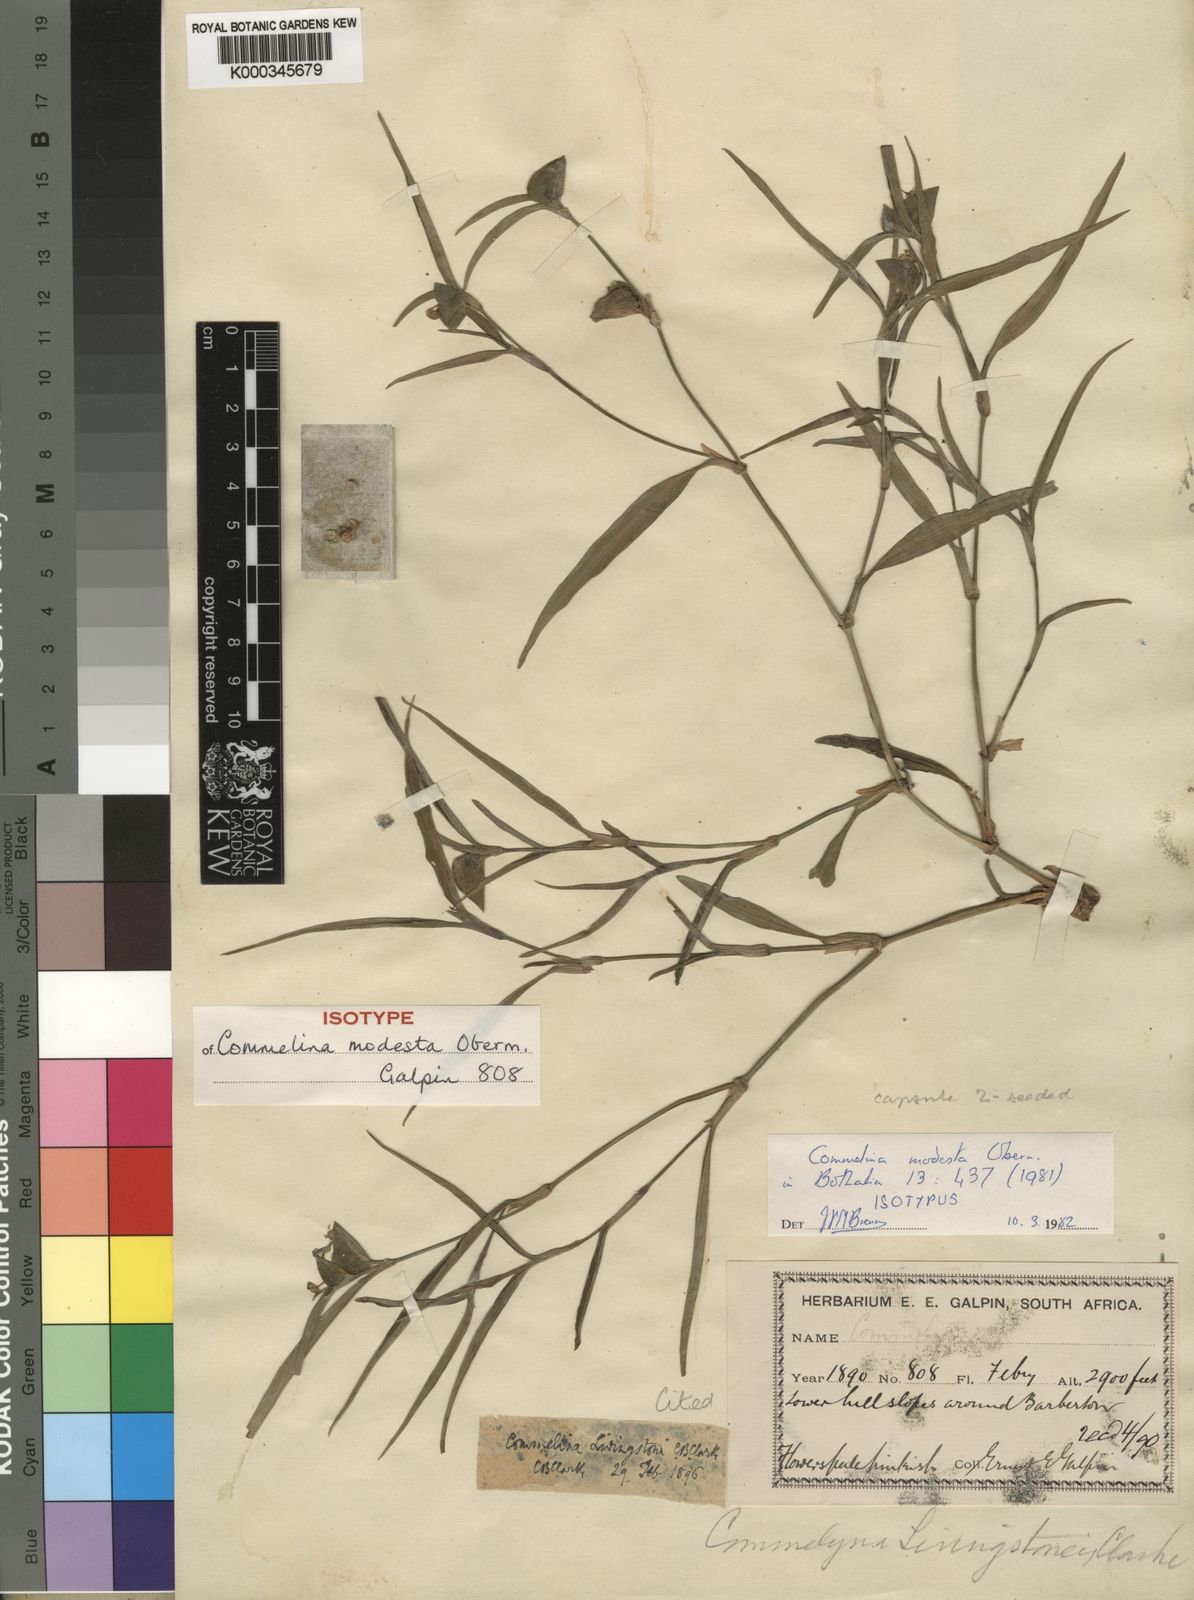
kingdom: Plantae
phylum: Tracheophyta
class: Liliopsida
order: Commelinales
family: Commelinaceae
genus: Commelina
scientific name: Commelina modesta
